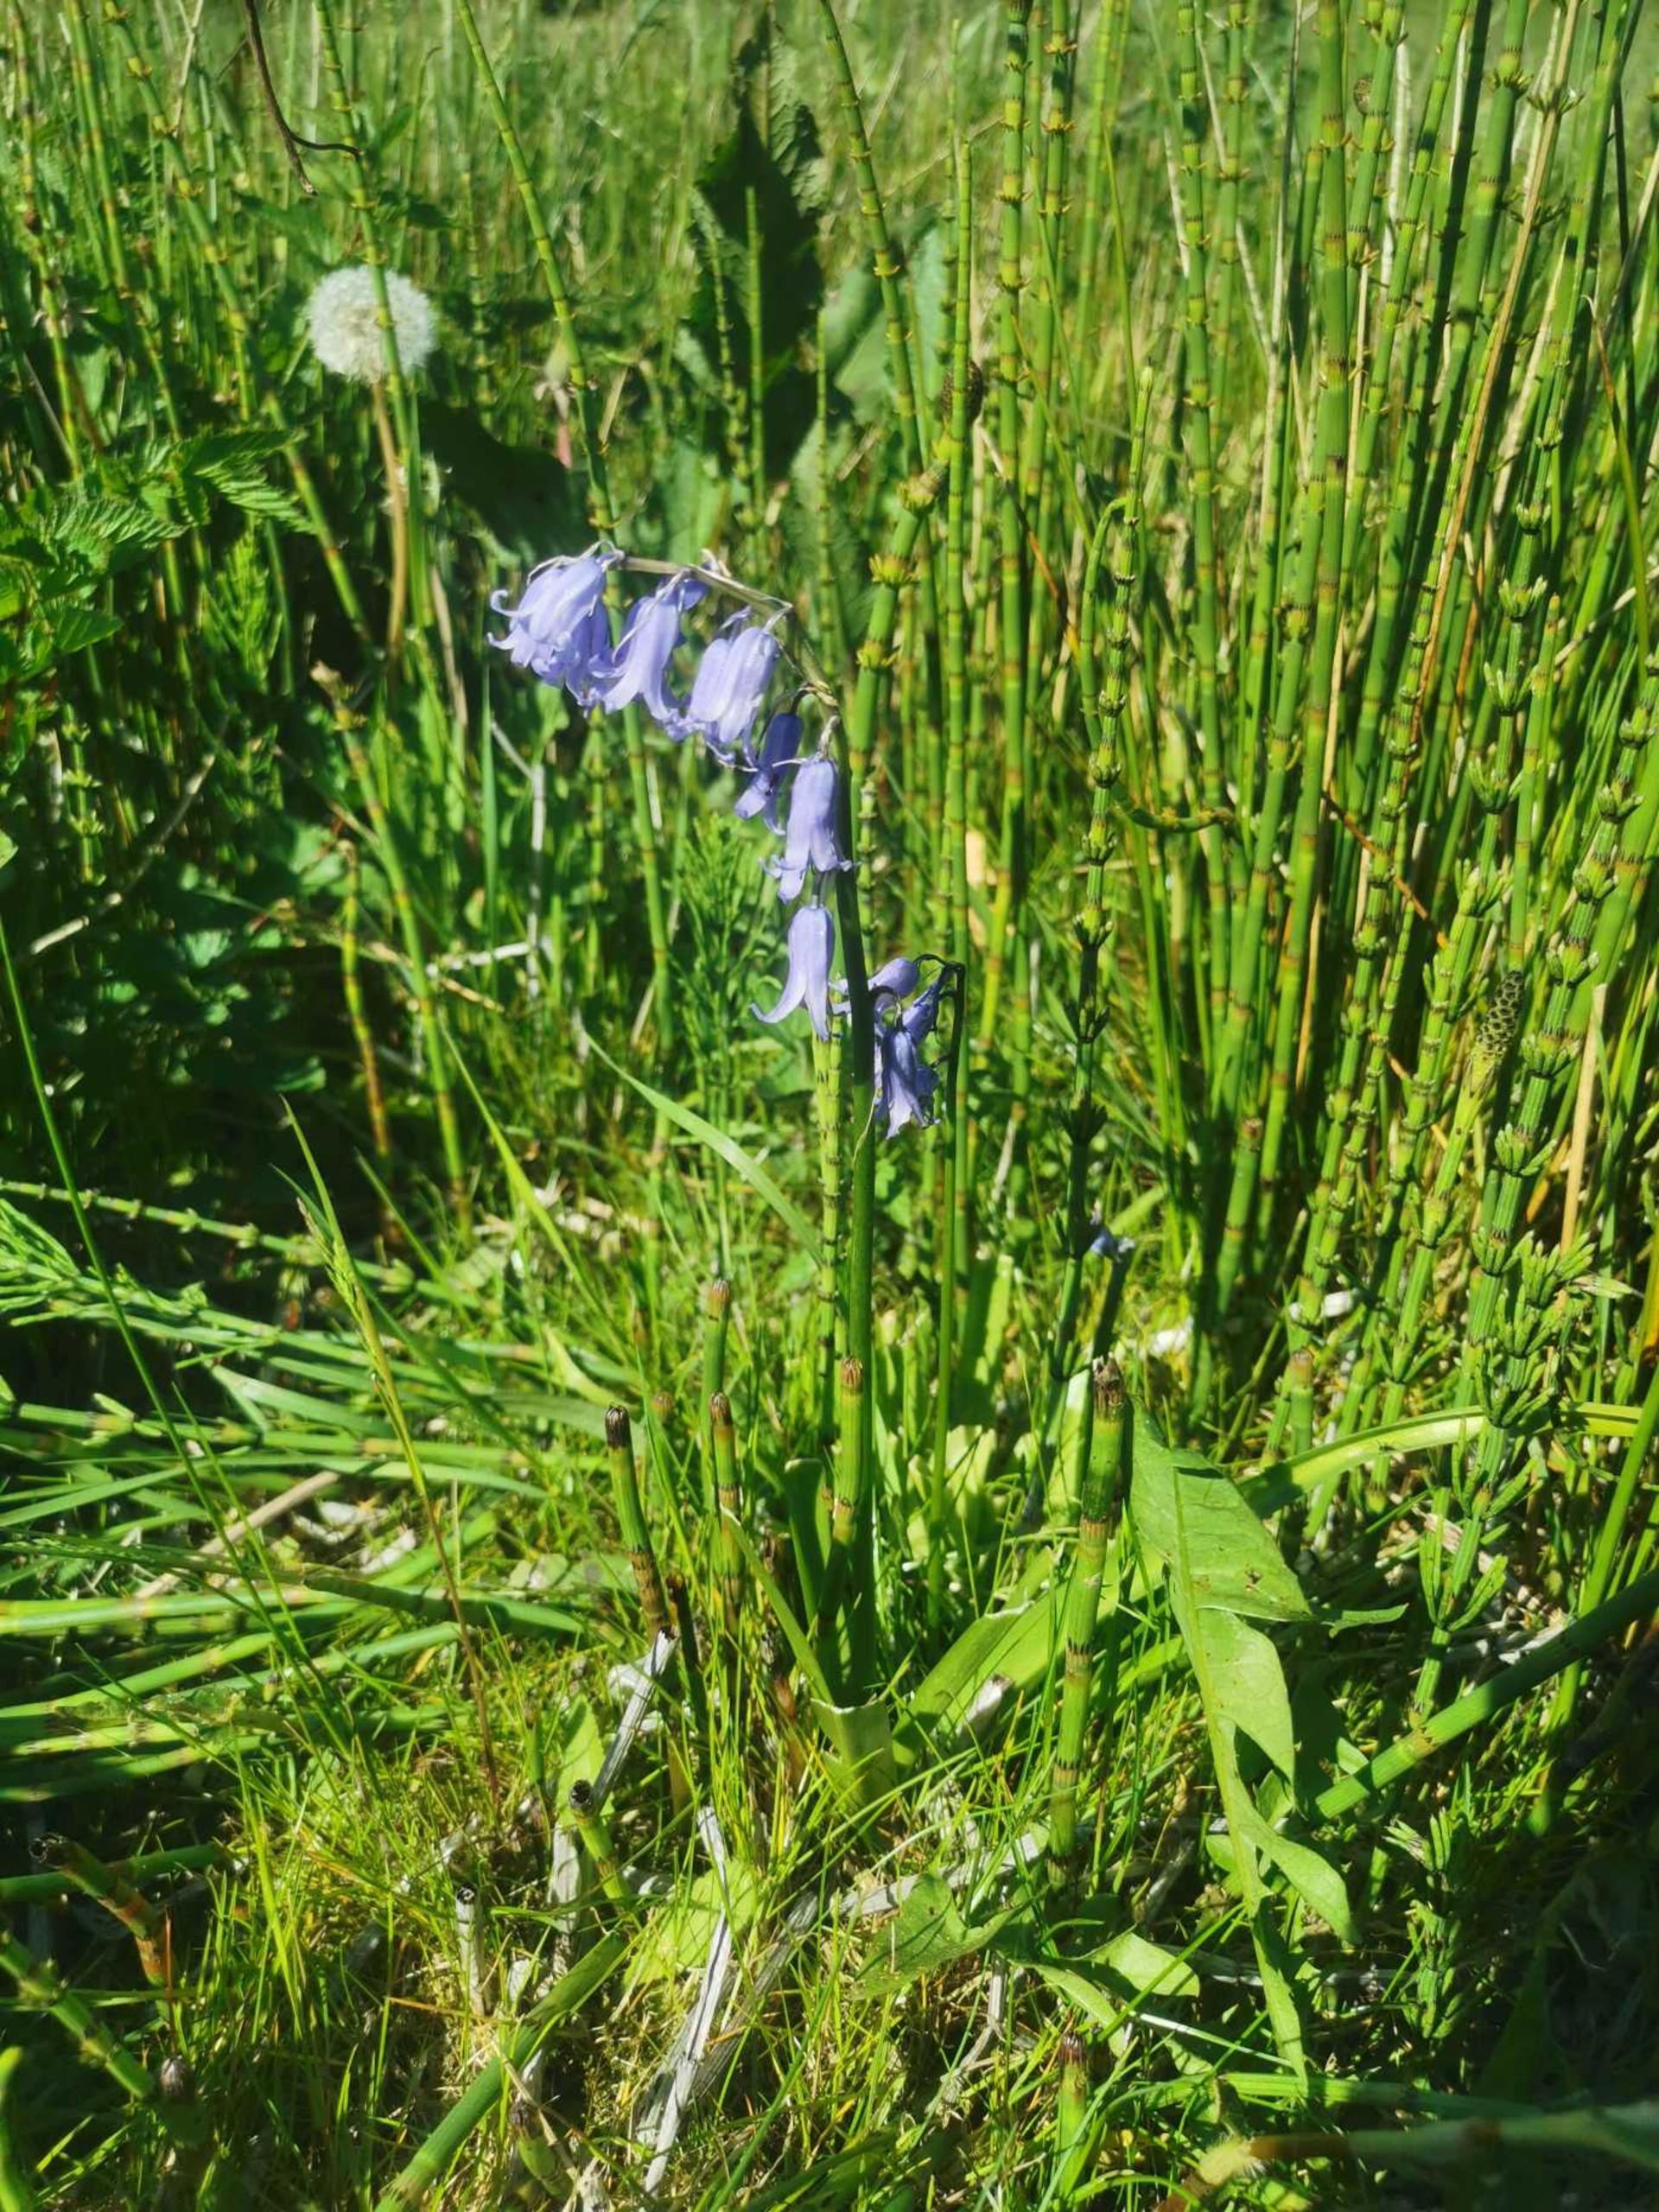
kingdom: Plantae
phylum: Tracheophyta
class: Liliopsida
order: Asparagales
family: Asparagaceae
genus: Hyacinthoides
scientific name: Hyacinthoides non-scripta
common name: Klokke-skilla
